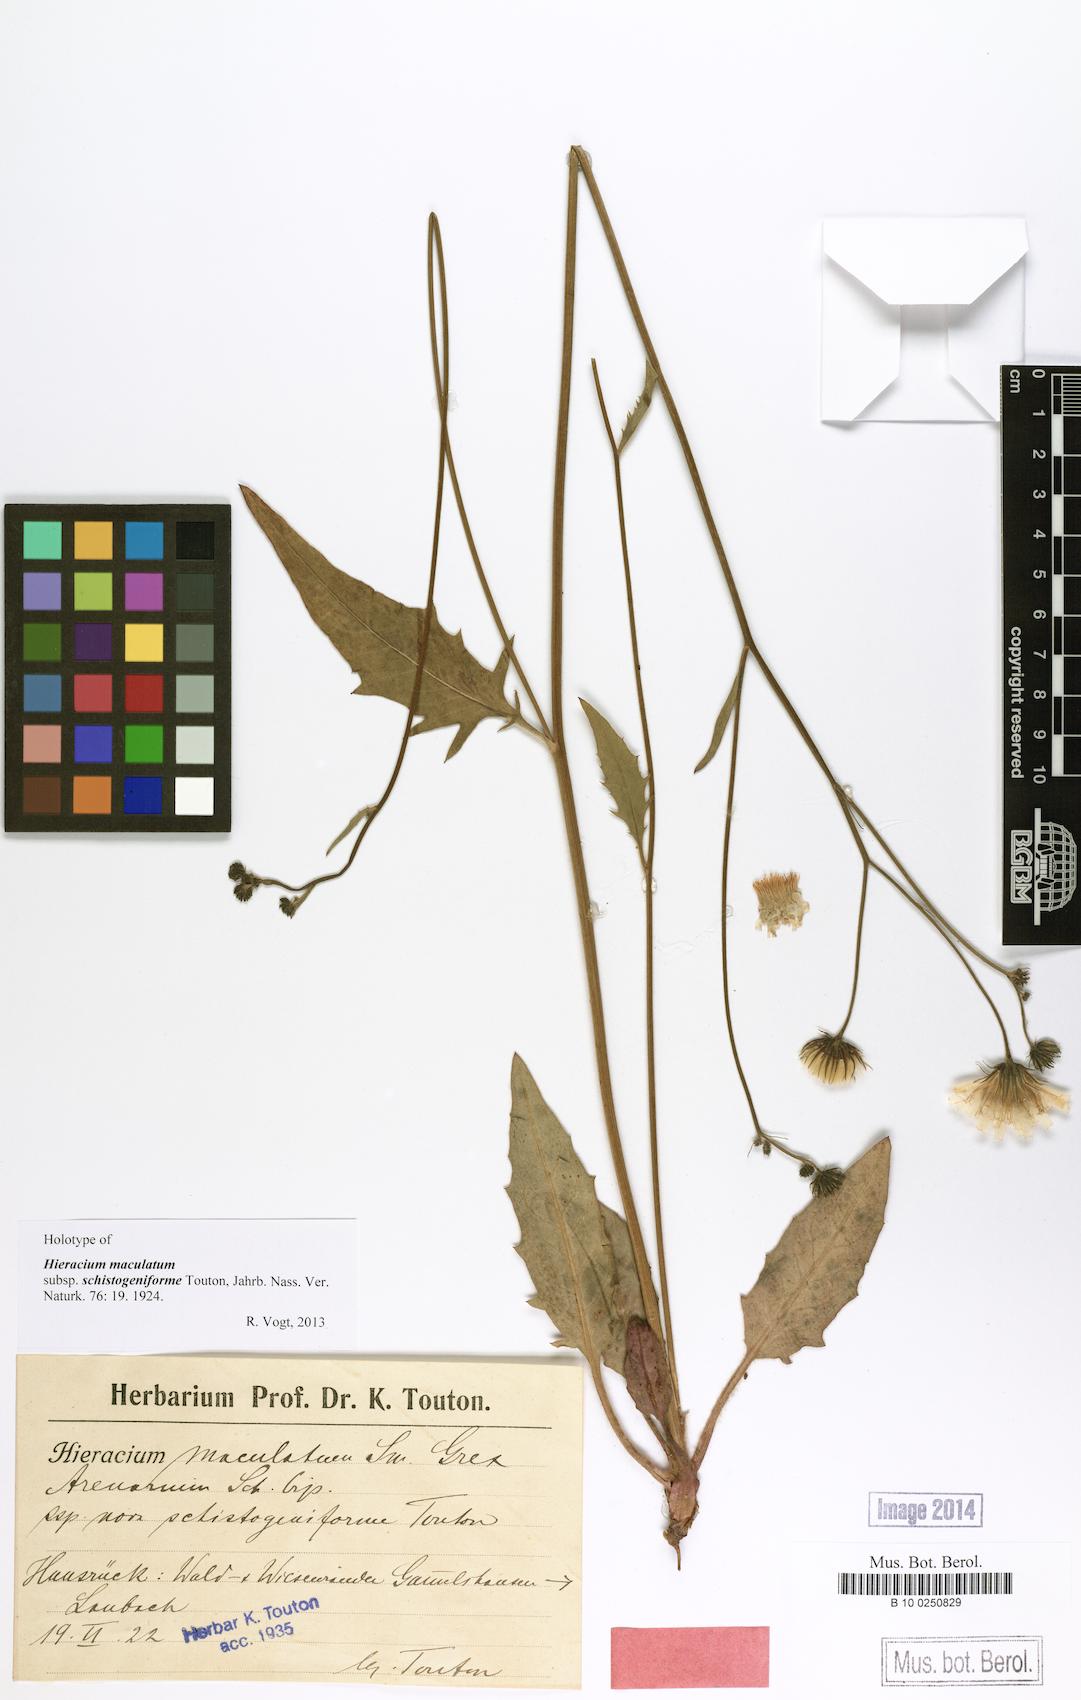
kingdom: Plantae
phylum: Tracheophyta
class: Magnoliopsida
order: Asterales
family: Asteraceae
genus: Hieracium
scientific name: Hieracium maculatum
